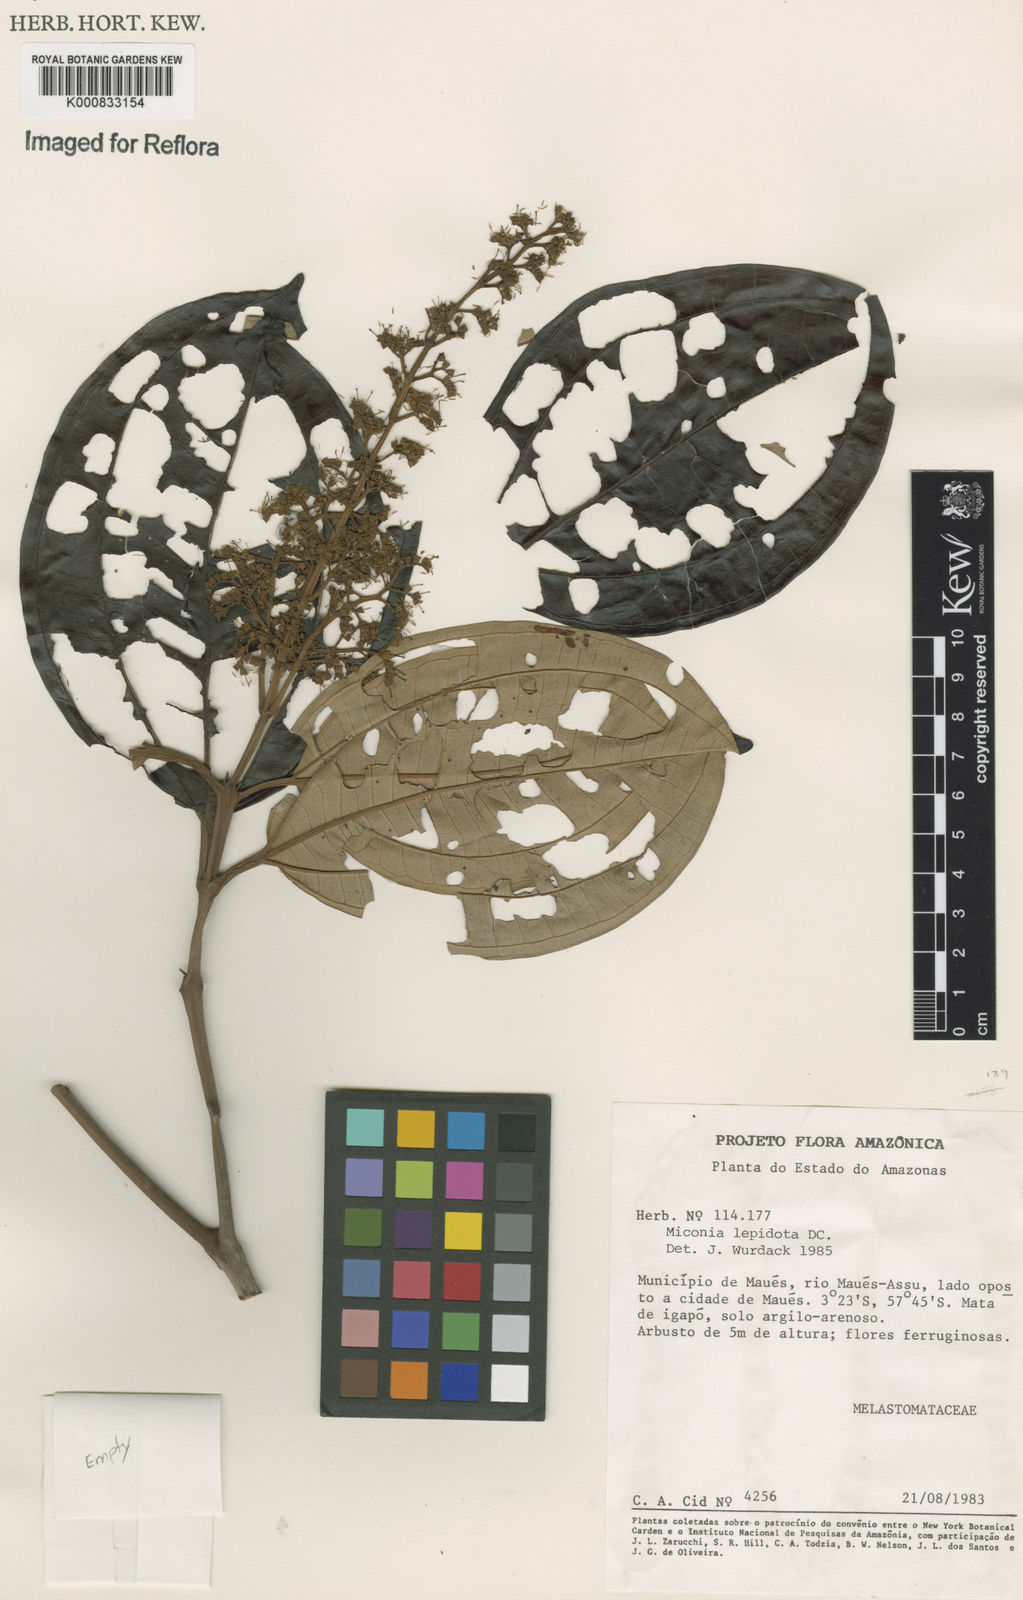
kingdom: Plantae
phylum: Tracheophyta
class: Magnoliopsida
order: Myrtales
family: Melastomataceae
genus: Miconia
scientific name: Miconia lepidota
